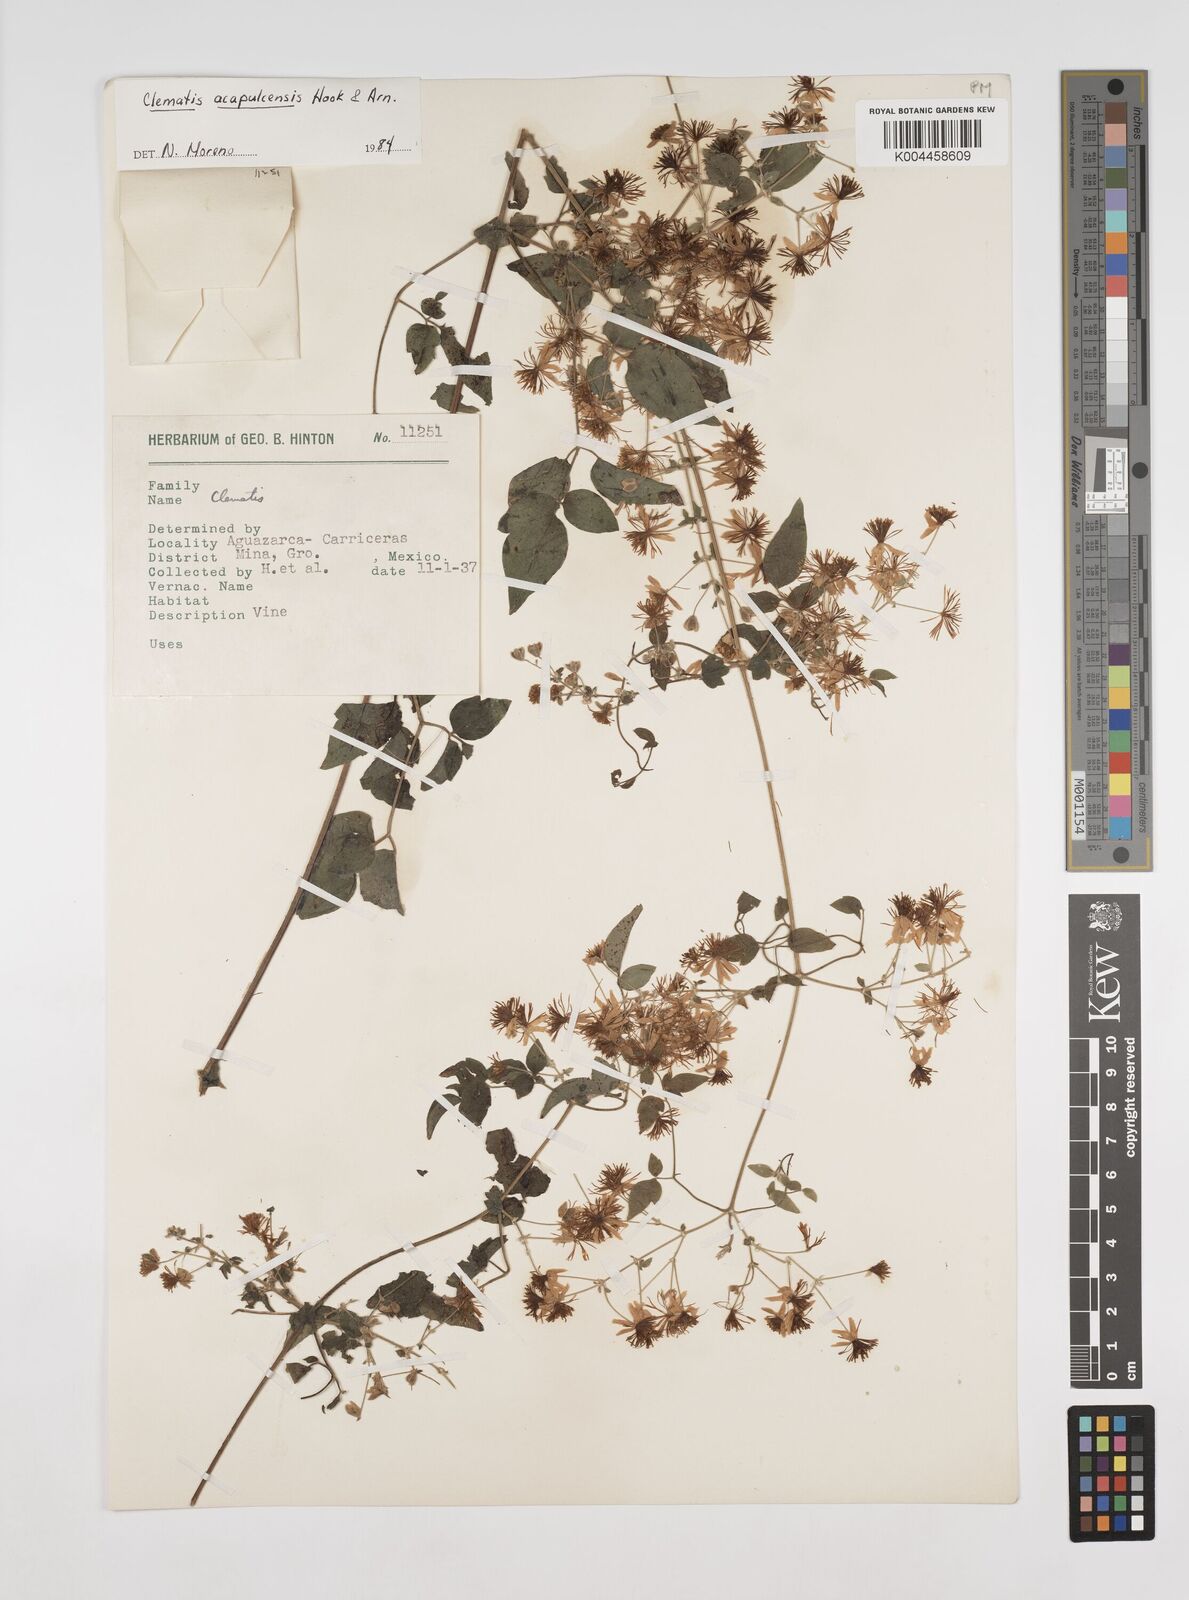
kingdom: Plantae
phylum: Tracheophyta
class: Magnoliopsida
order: Ranunculales
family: Ranunculaceae
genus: Clematis
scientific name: Clematis acapulcensis
